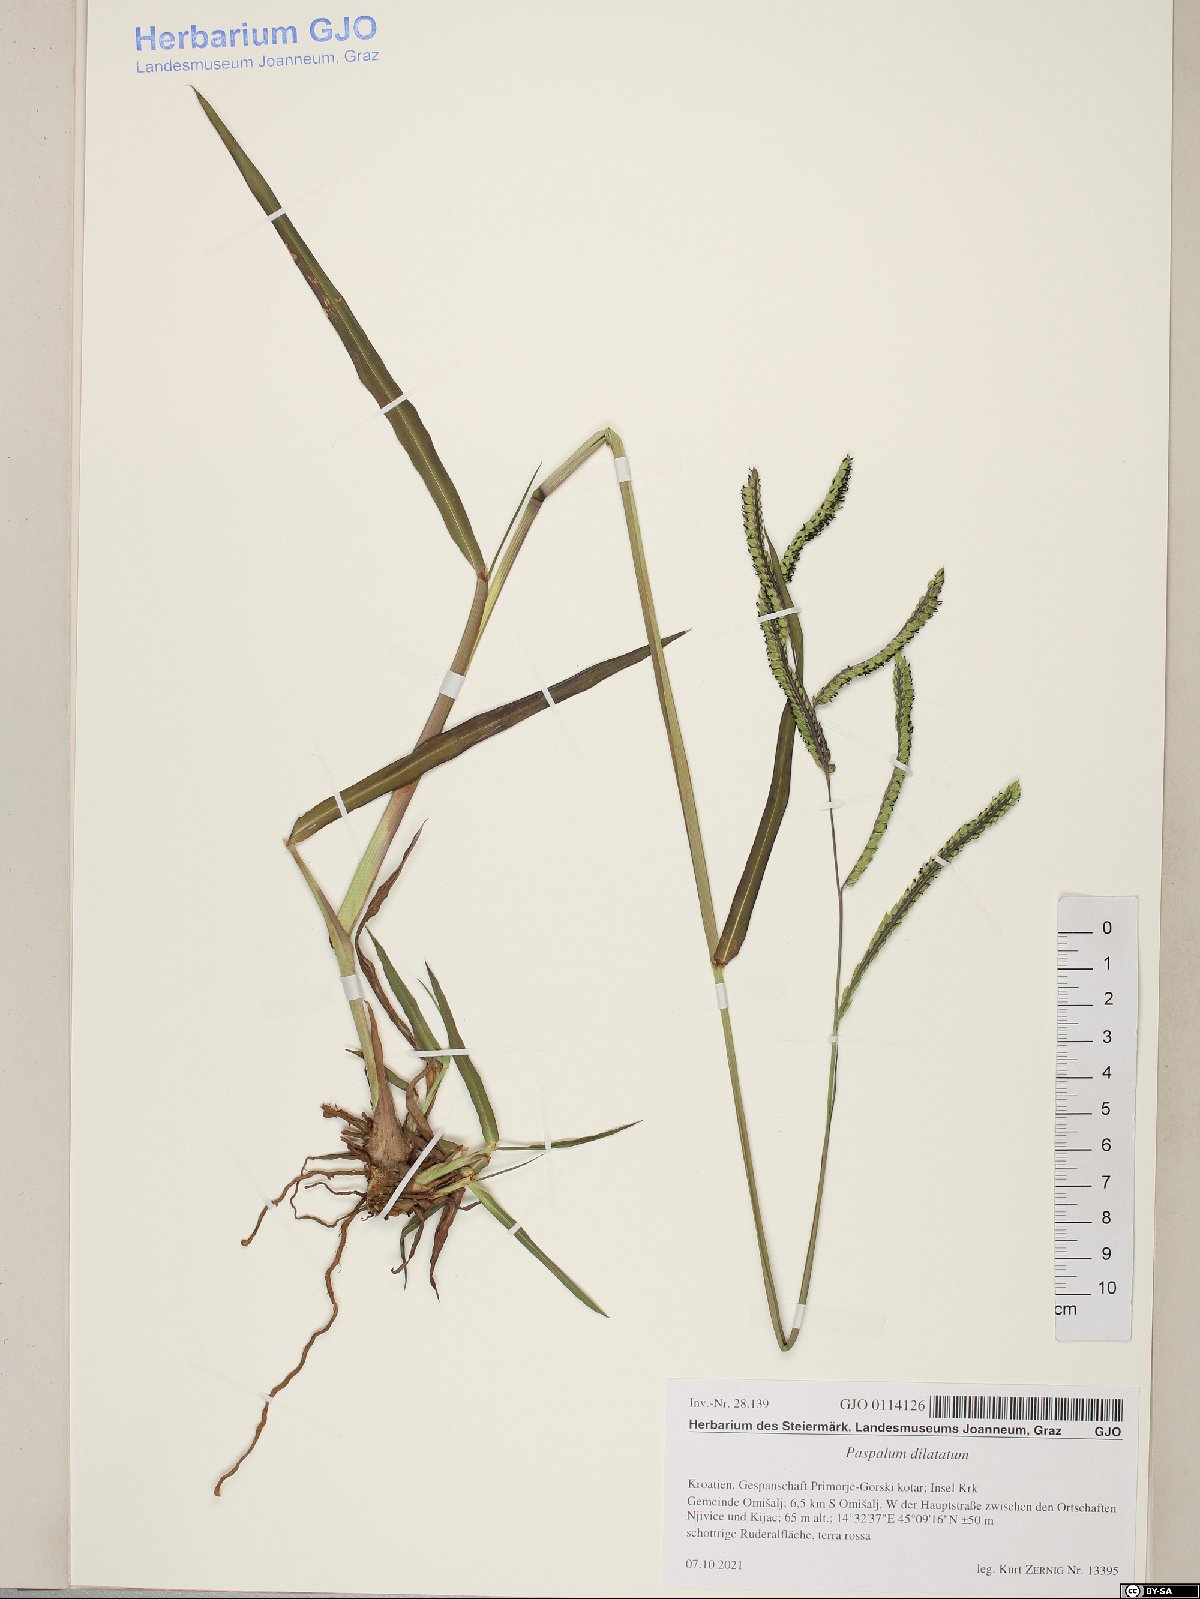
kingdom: Plantae
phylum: Tracheophyta
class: Liliopsida
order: Poales
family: Poaceae
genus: Paspalum
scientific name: Paspalum dilatatum
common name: Dallisgrass
